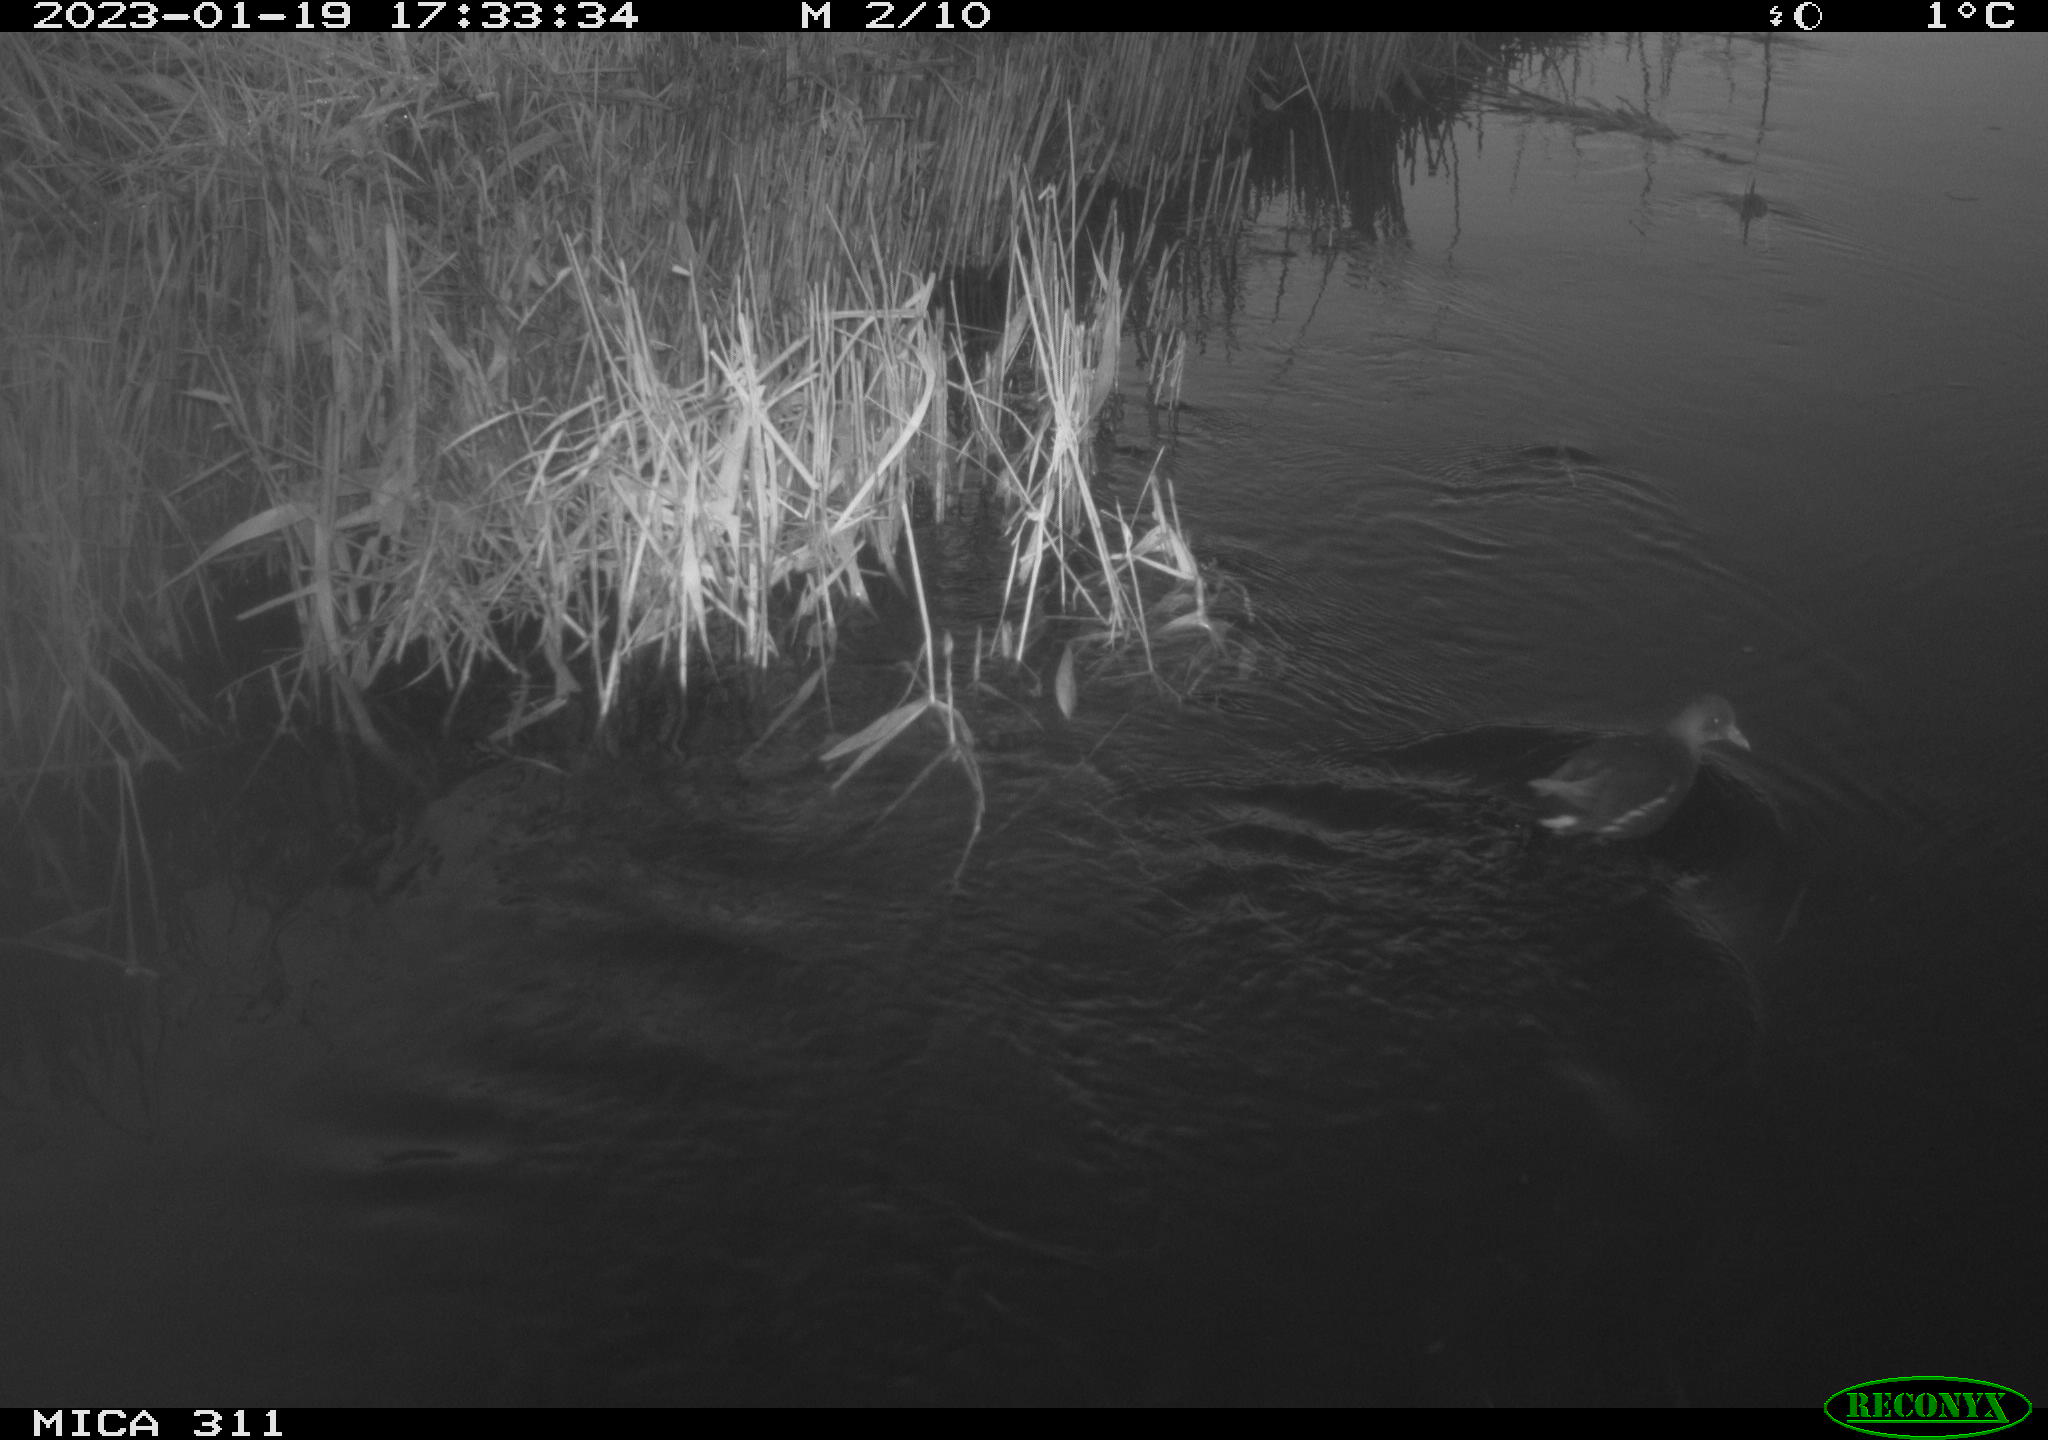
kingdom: Animalia
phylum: Chordata
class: Aves
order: Gruiformes
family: Rallidae
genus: Gallinula
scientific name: Gallinula chloropus
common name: Common moorhen
